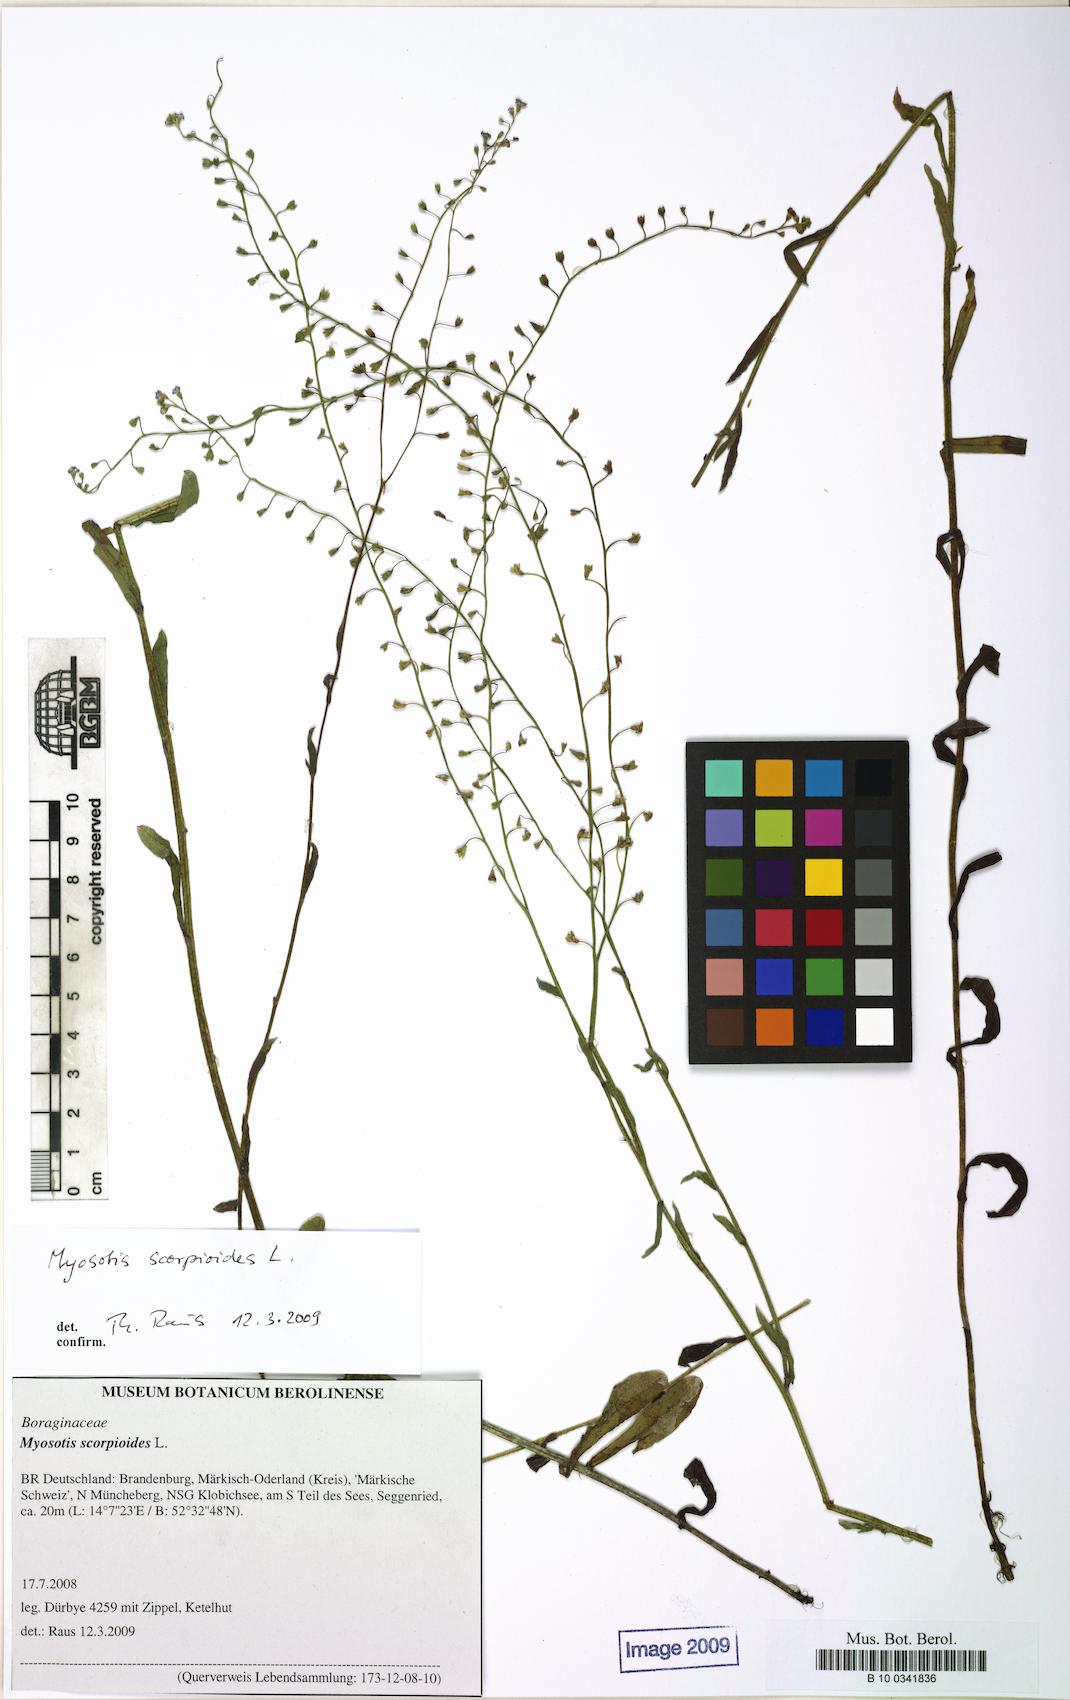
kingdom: Plantae
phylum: Tracheophyta
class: Magnoliopsida
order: Boraginales
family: Boraginaceae
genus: Myosotis
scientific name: Myosotis scorpioides
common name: Water forget-me-not
